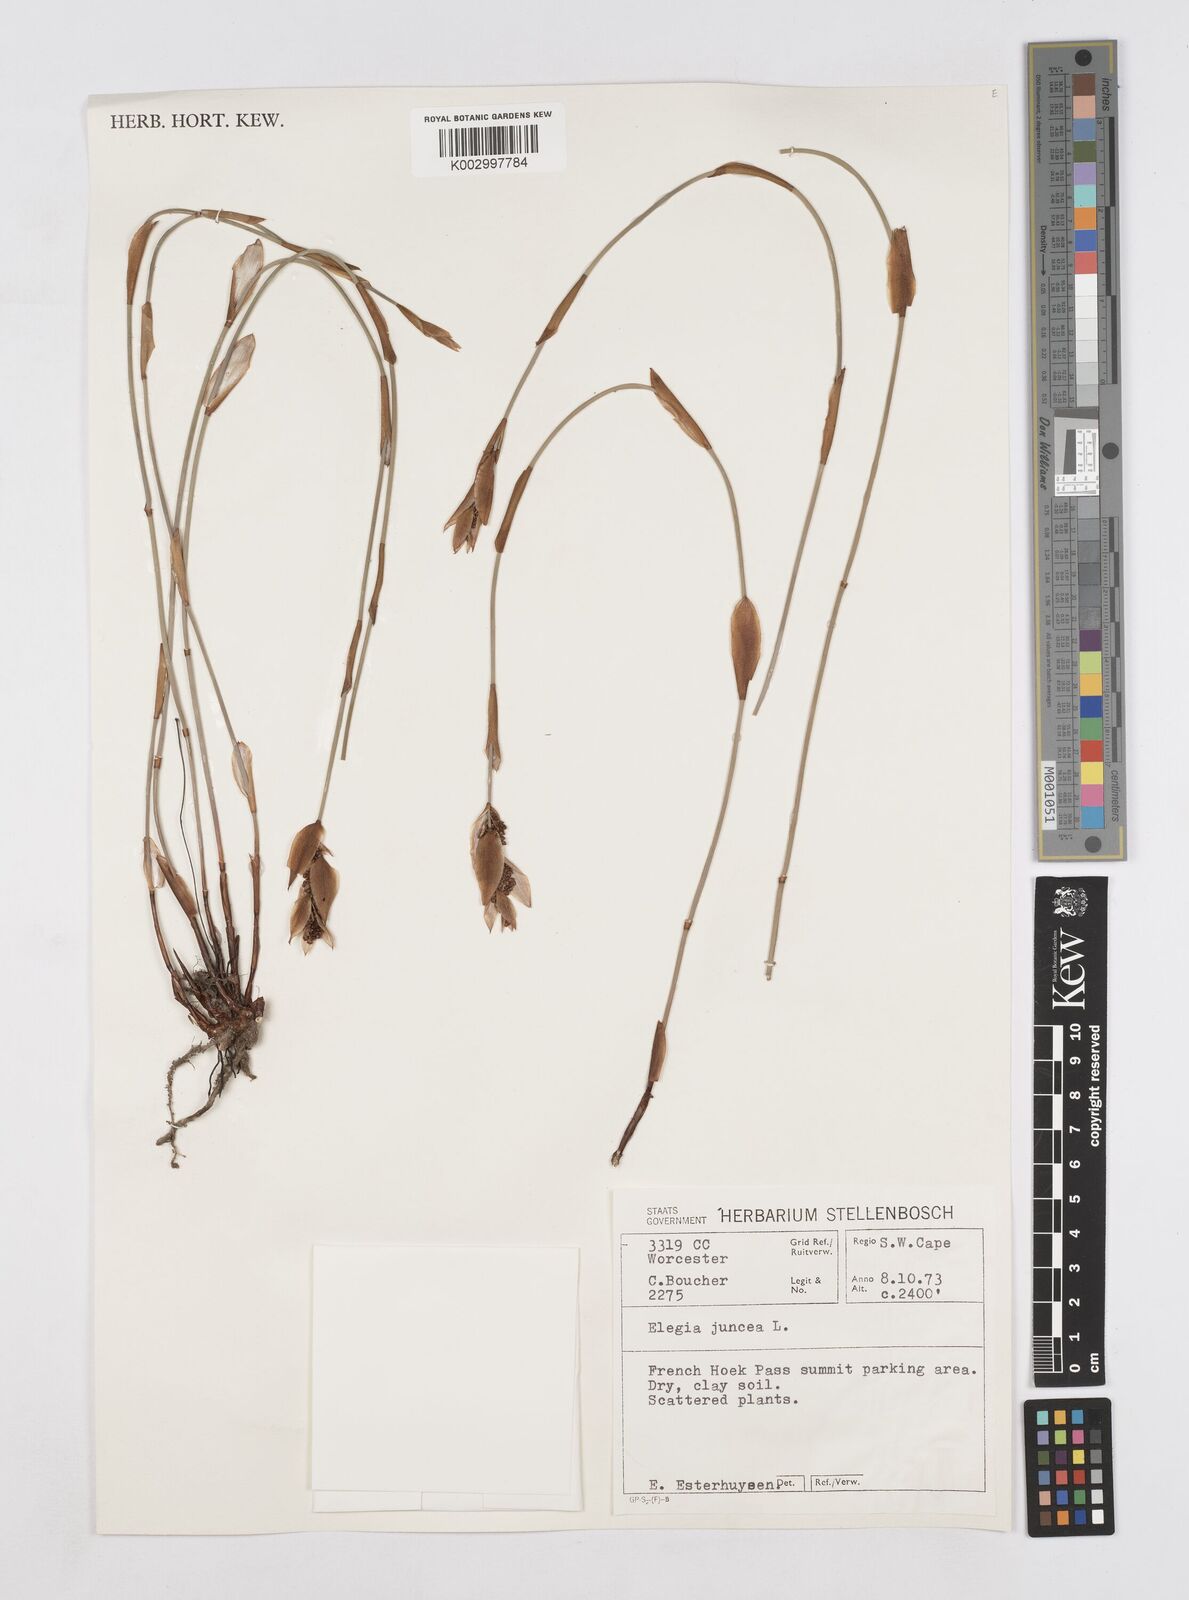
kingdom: Plantae
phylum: Tracheophyta
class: Liliopsida
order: Poales
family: Restionaceae
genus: Elegia
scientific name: Elegia juncea
